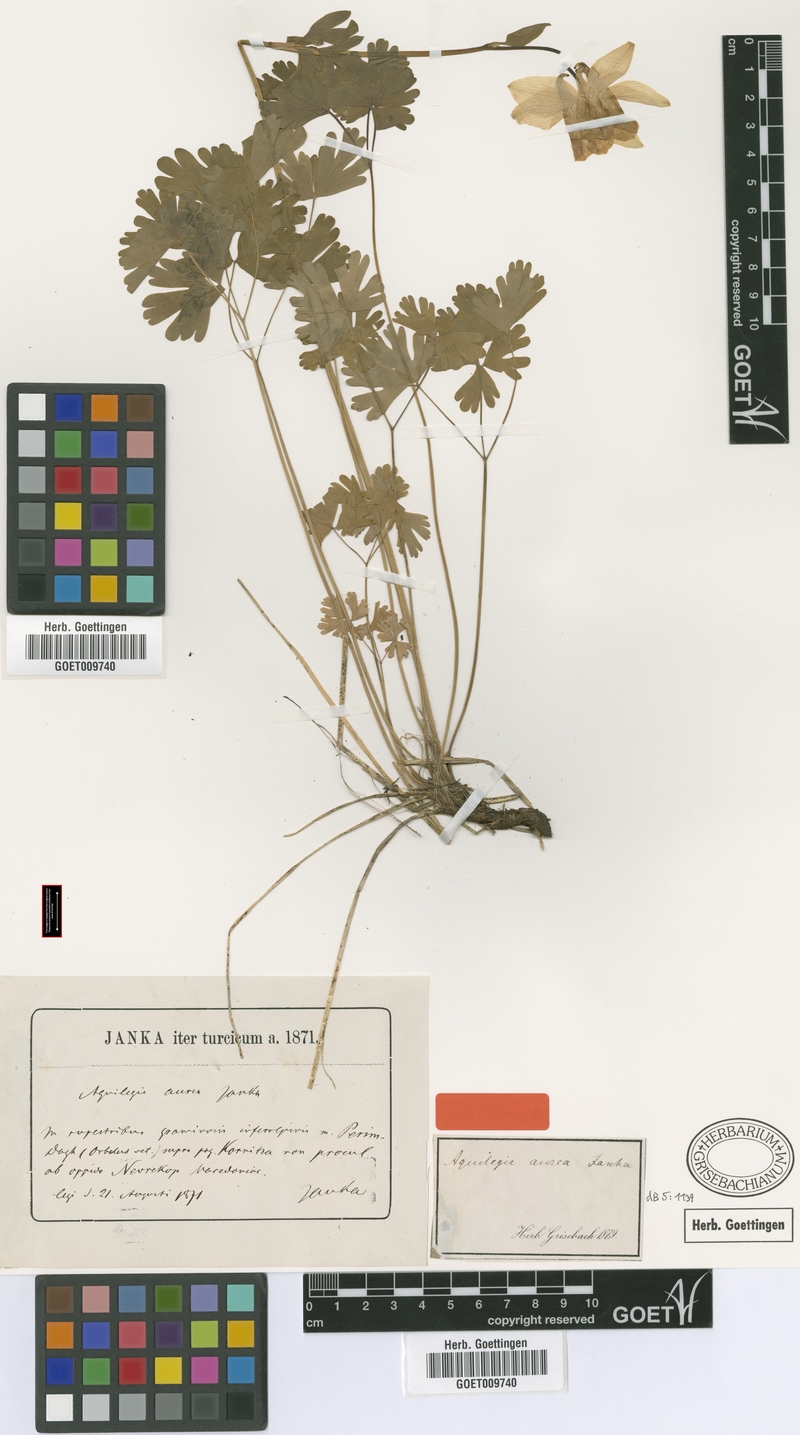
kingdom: Plantae
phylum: Tracheophyta
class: Magnoliopsida
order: Ranunculales
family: Ranunculaceae
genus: Aquilegia
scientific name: Aquilegia aurea
